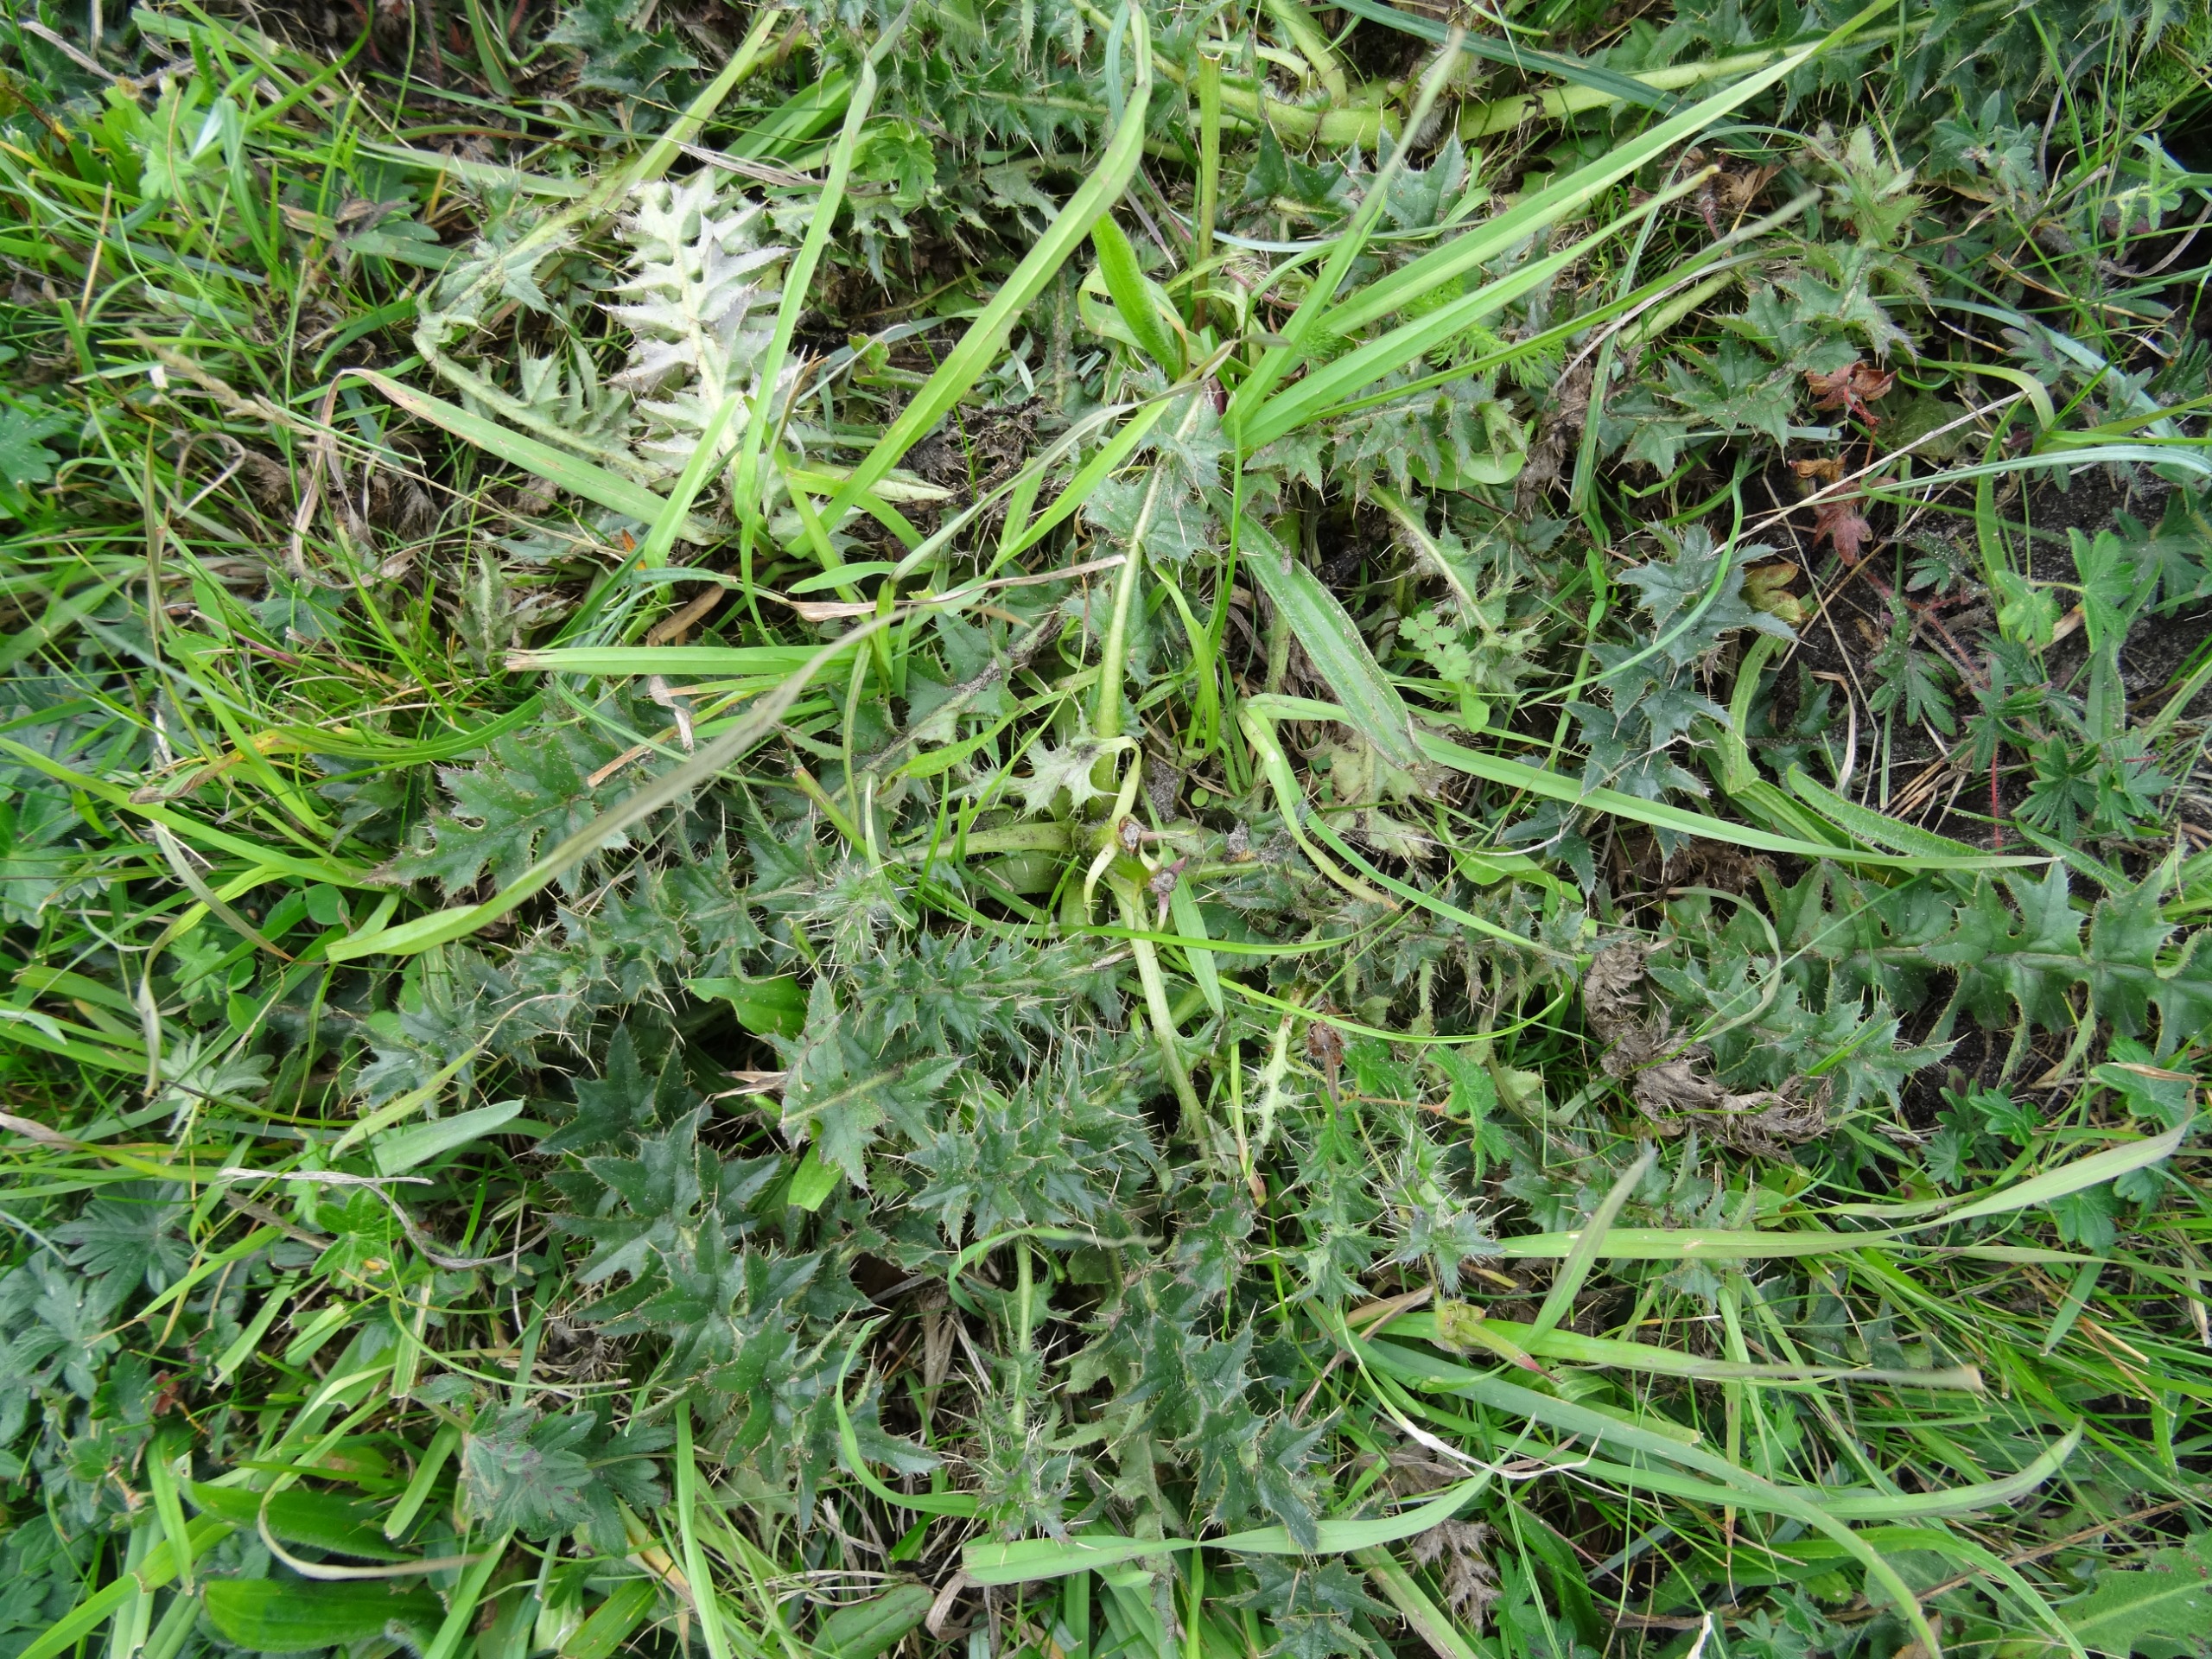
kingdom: Plantae
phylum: Tracheophyta
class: Magnoliopsida
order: Asterales
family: Asteraceae
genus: Cirsium
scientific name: Cirsium acaule
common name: Lav tidsel
